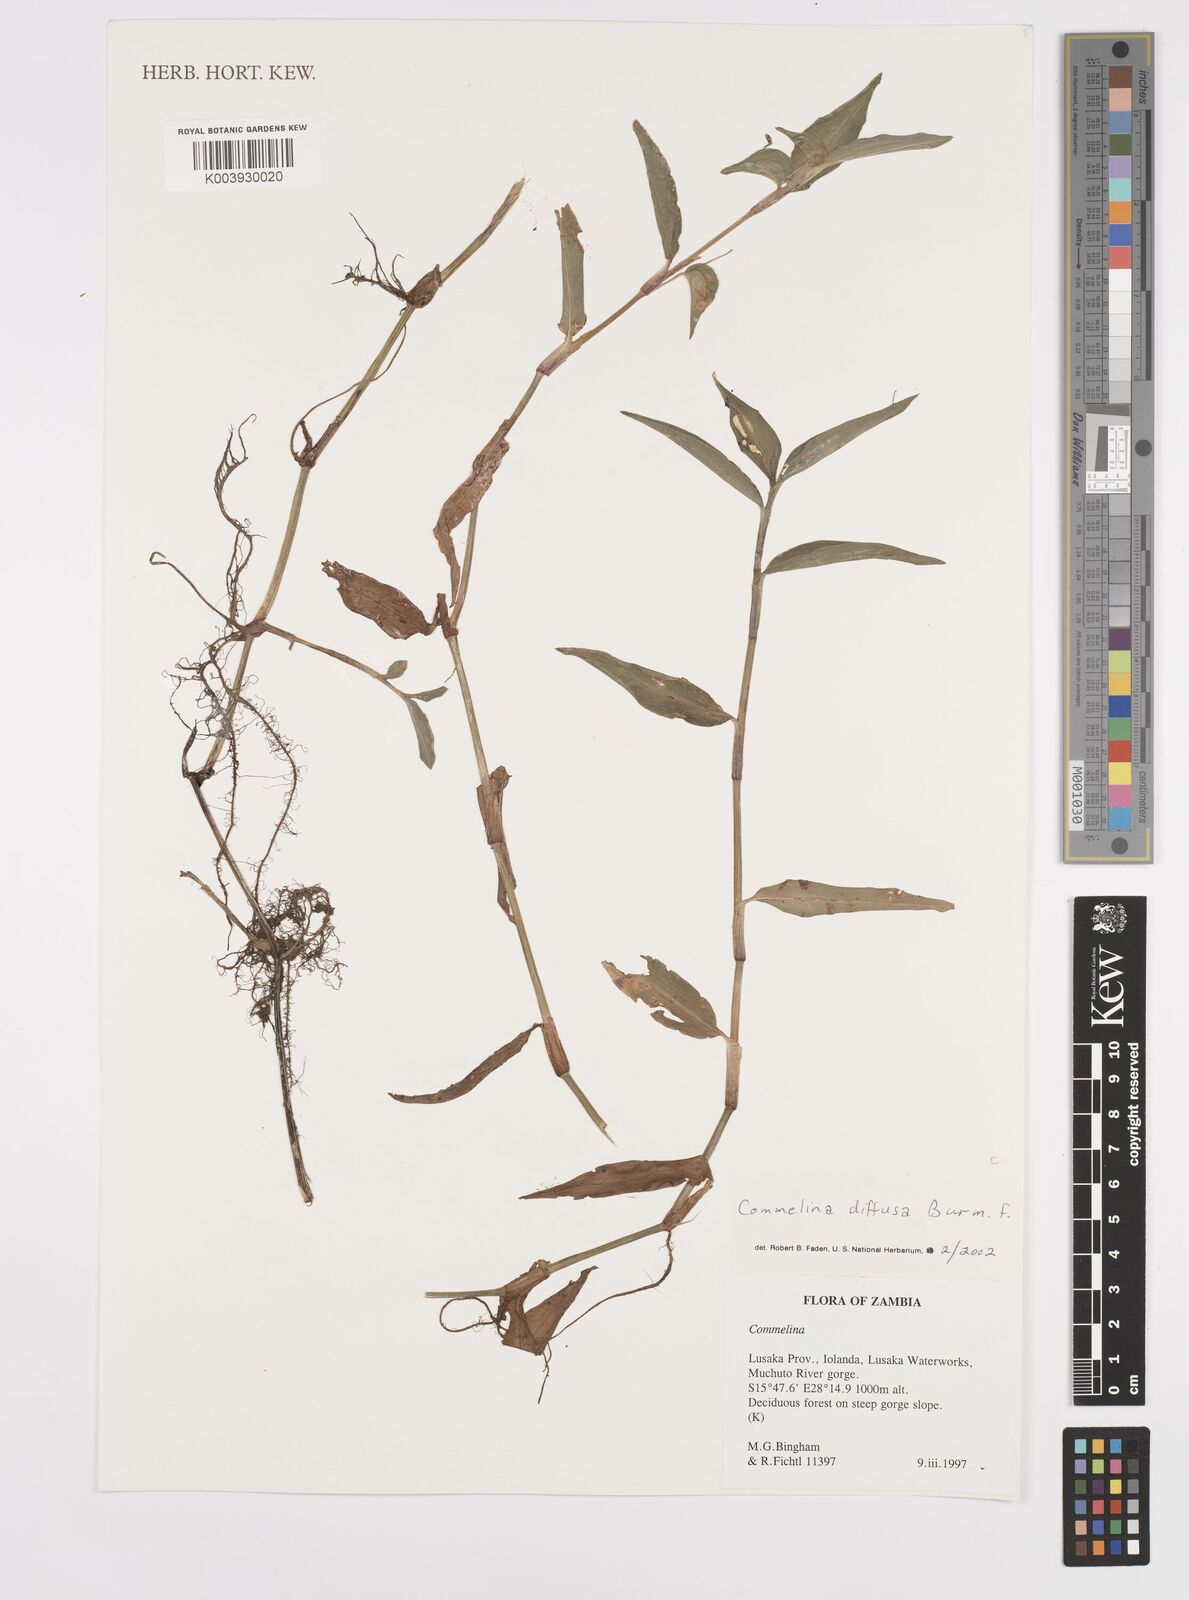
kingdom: Plantae
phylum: Tracheophyta
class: Liliopsida
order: Commelinales
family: Commelinaceae
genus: Commelina
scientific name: Commelina diffusa
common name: Climbing dayflower
